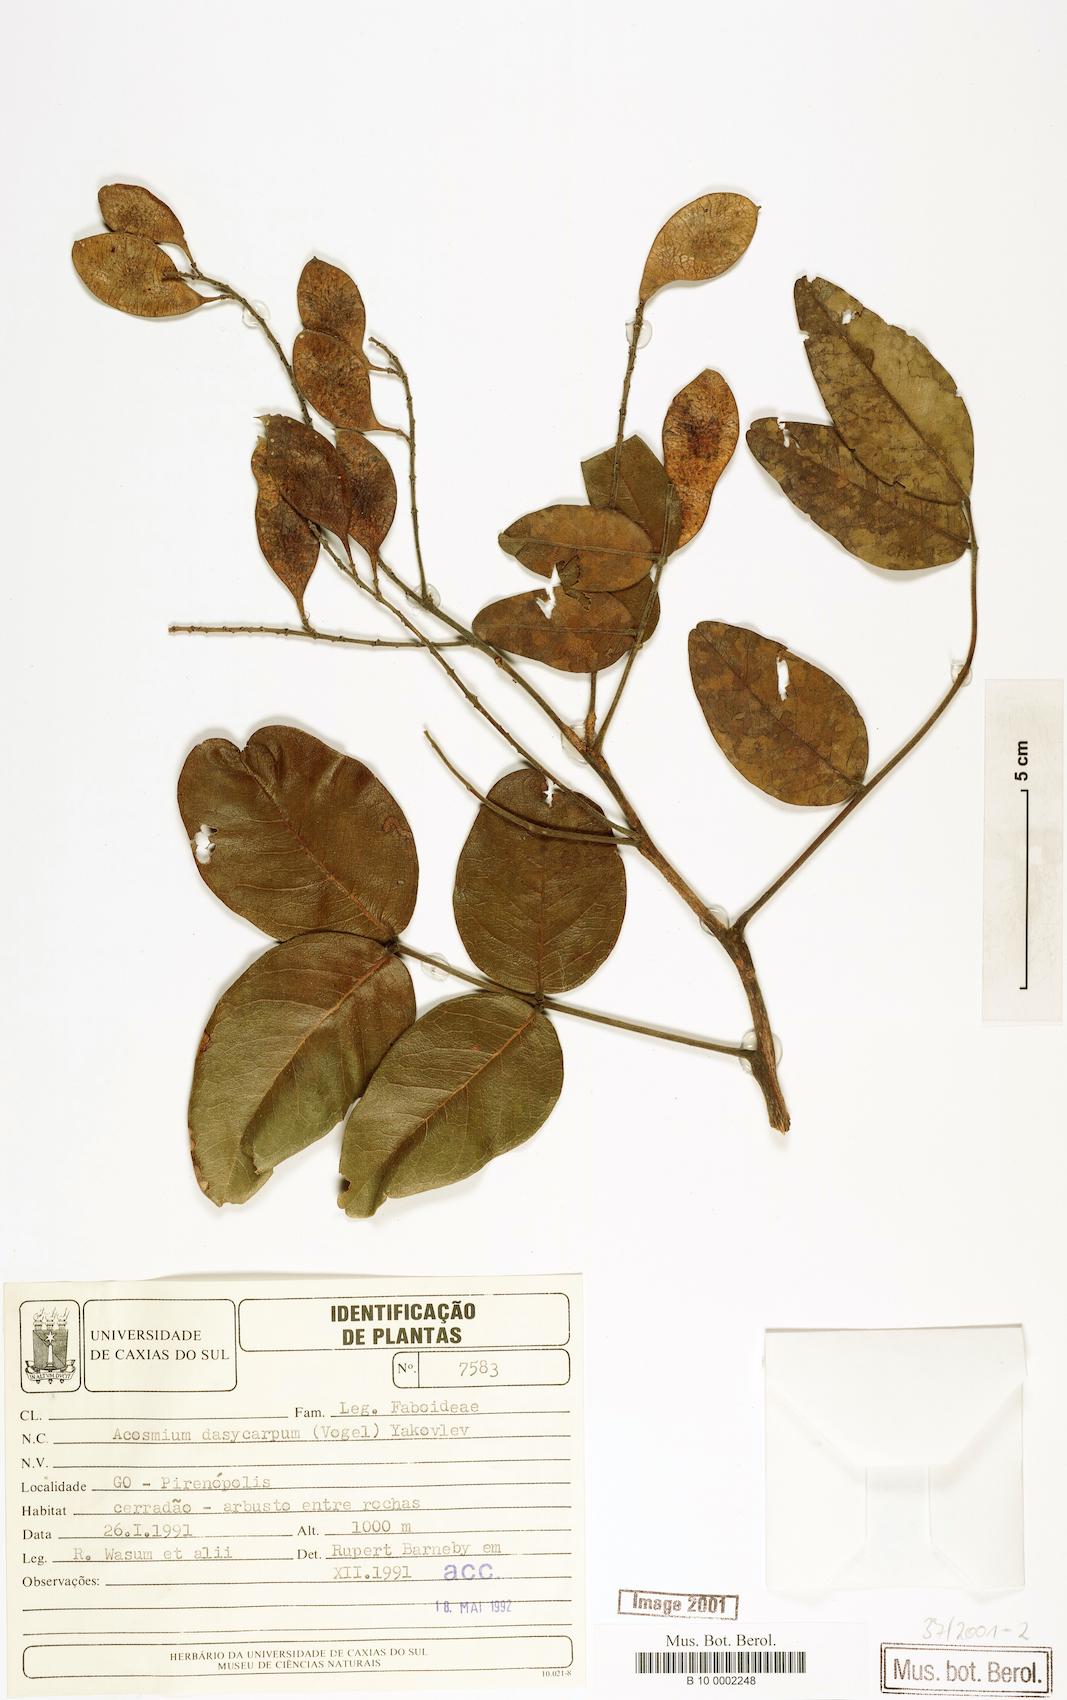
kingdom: Plantae
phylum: Tracheophyta
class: Magnoliopsida
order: Fabales
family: Fabaceae
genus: Leptolobium
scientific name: Leptolobium dasycarpum
